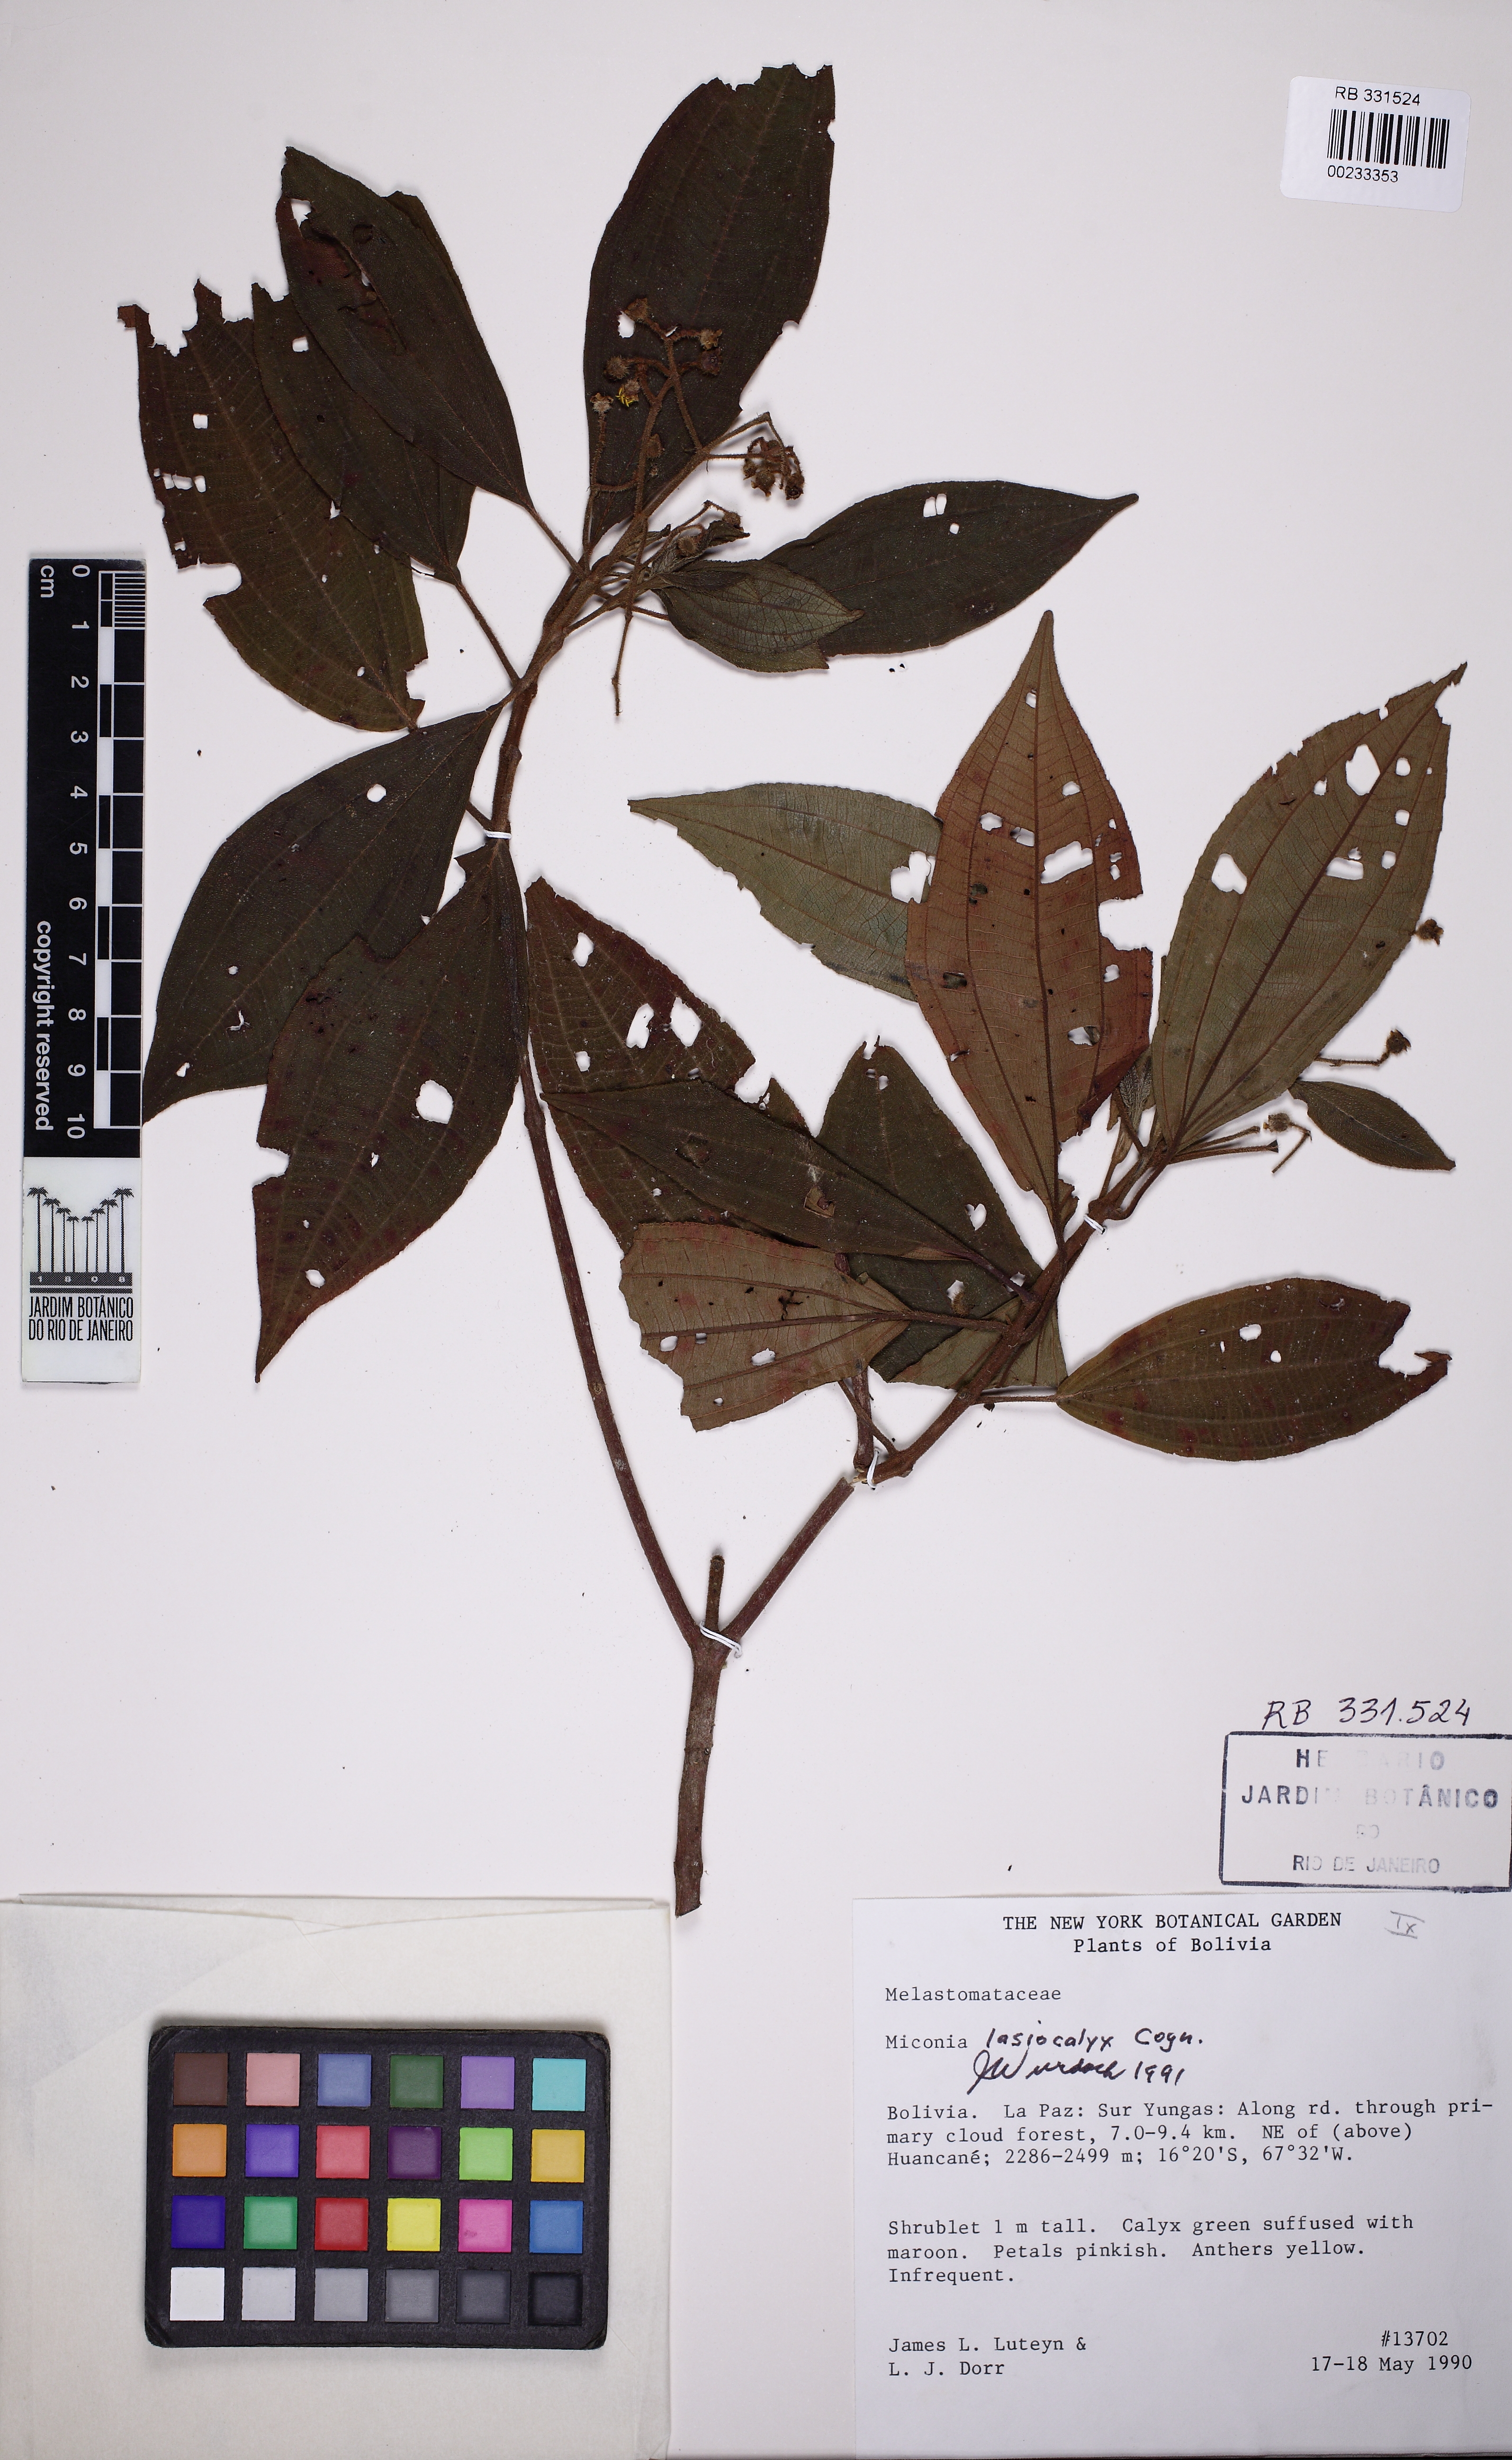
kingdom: Plantae
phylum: Tracheophyta
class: Magnoliopsida
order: Myrtales
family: Melastomataceae
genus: Miconia
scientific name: Miconia lasiocalyx
